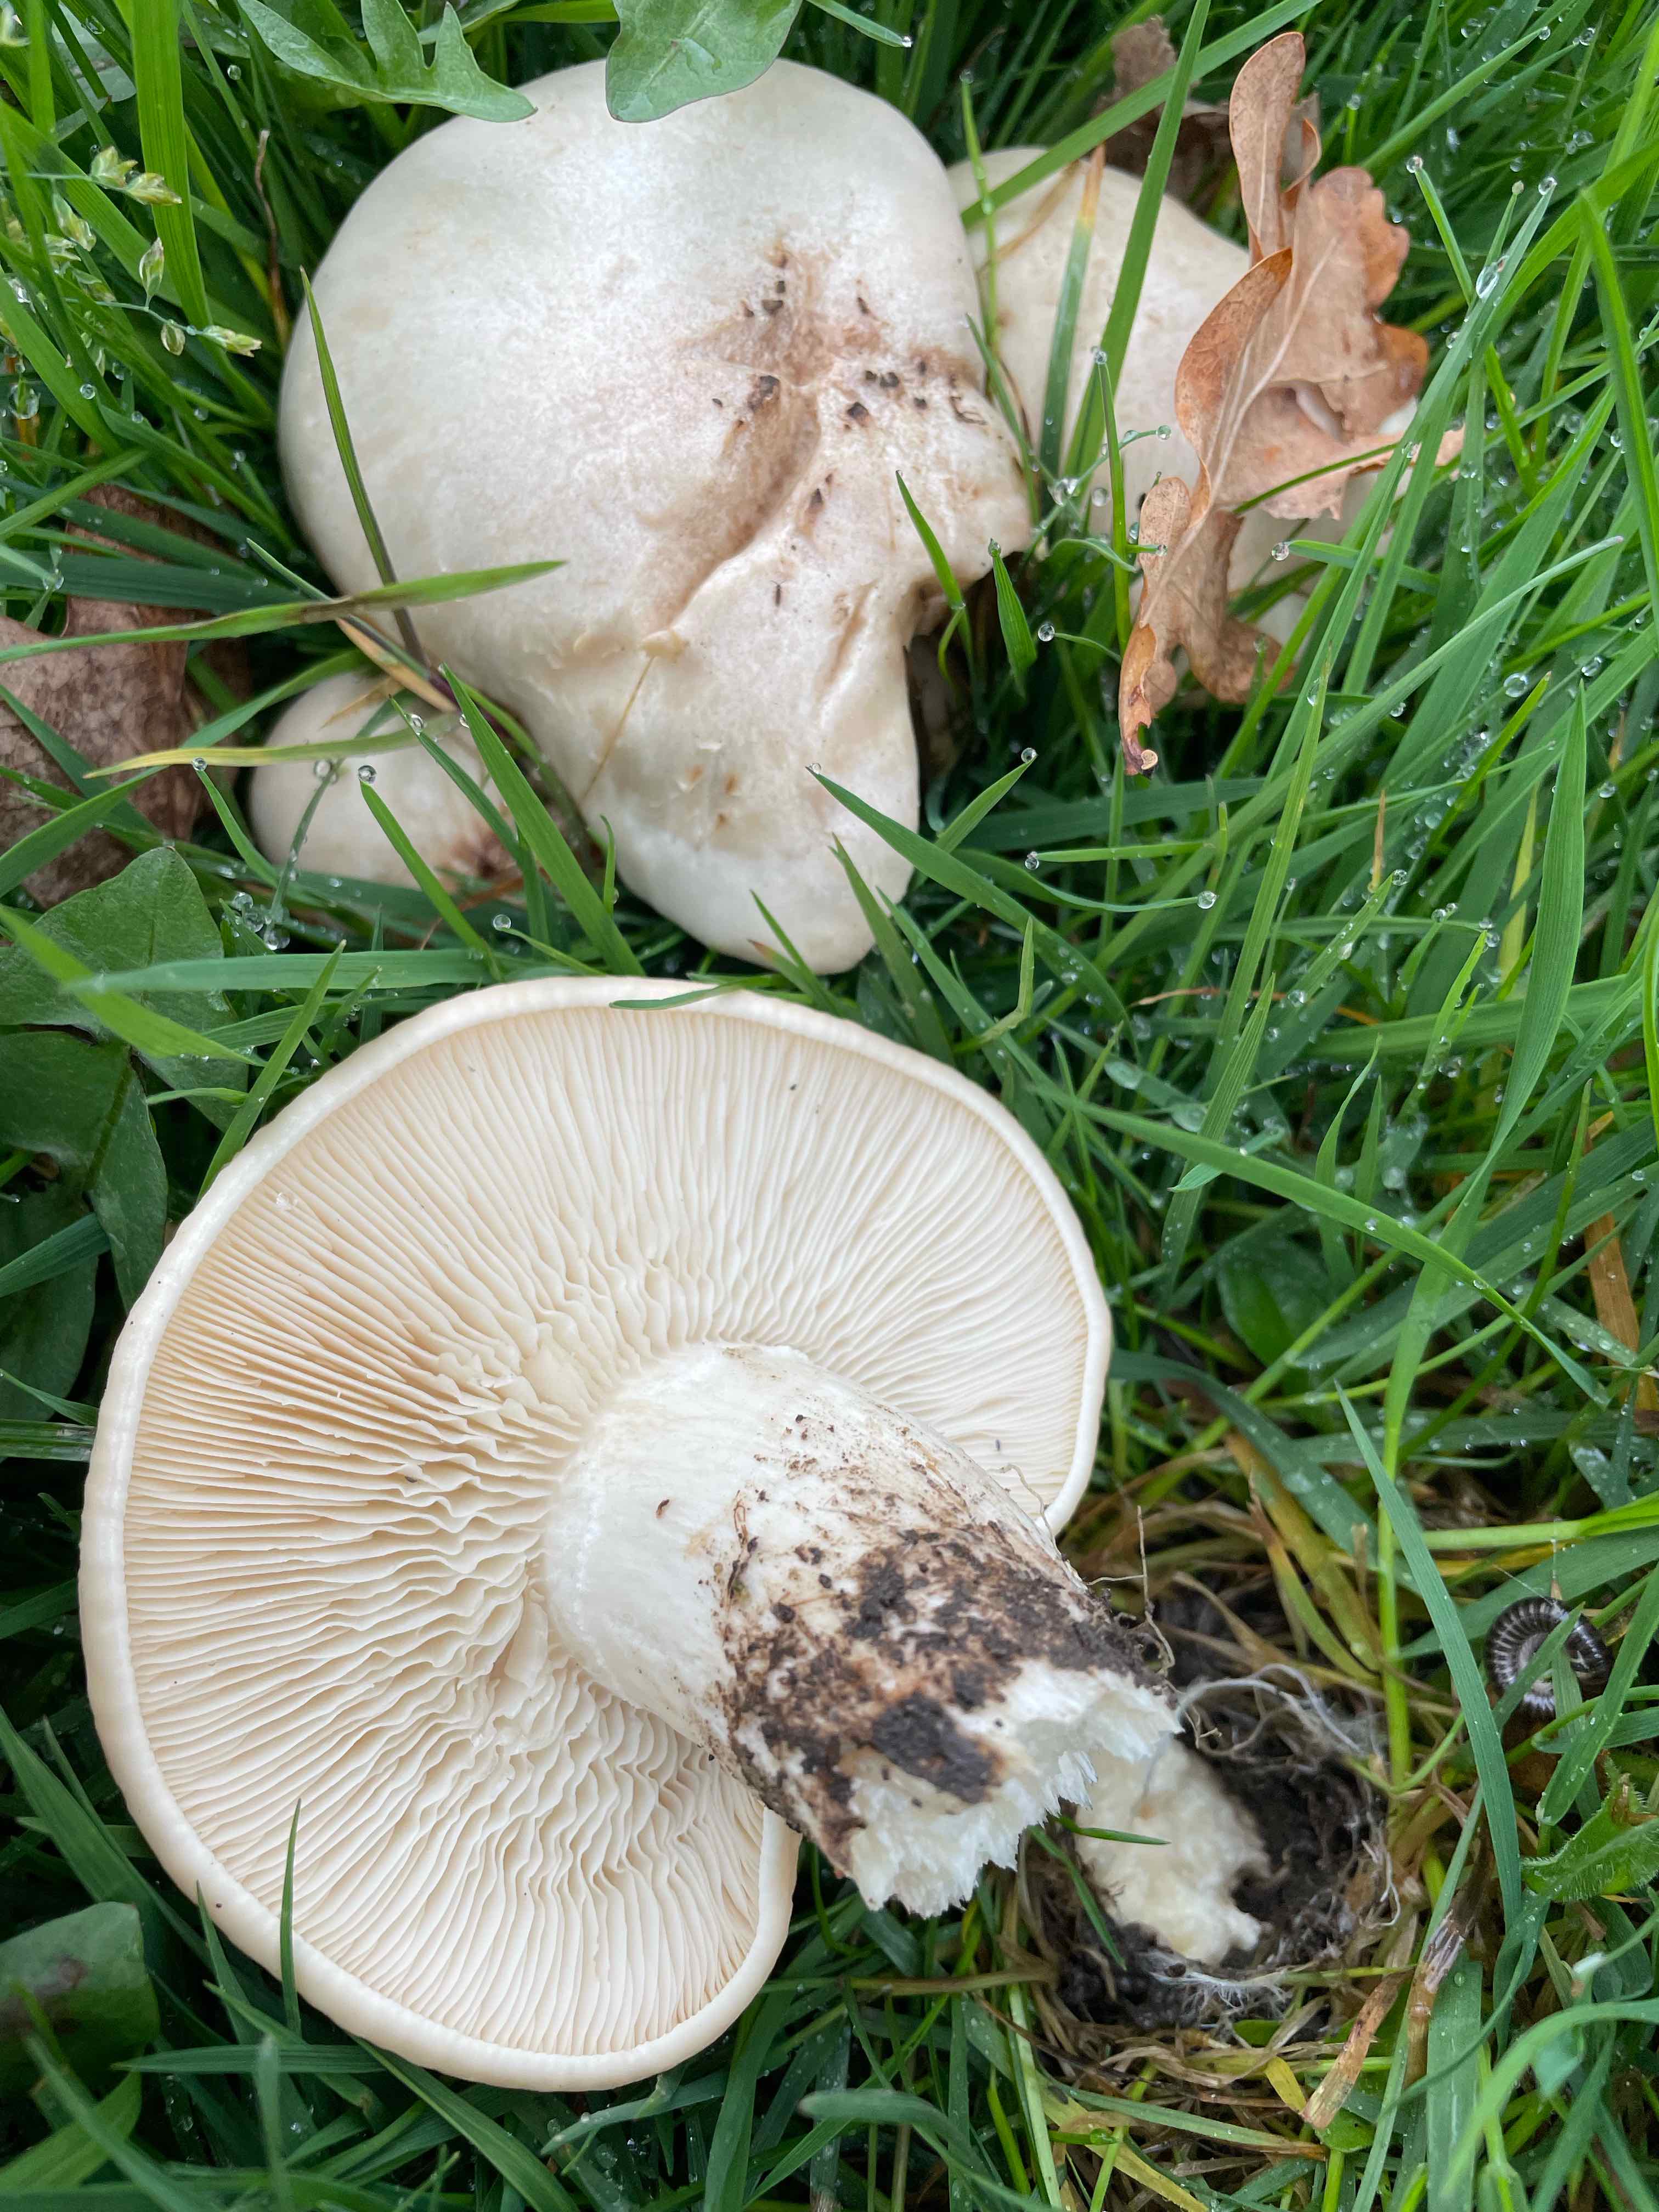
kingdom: Fungi
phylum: Basidiomycota
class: Agaricomycetes
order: Agaricales
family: Lyophyllaceae
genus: Calocybe
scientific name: Calocybe gambosa
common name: vårmusseron
